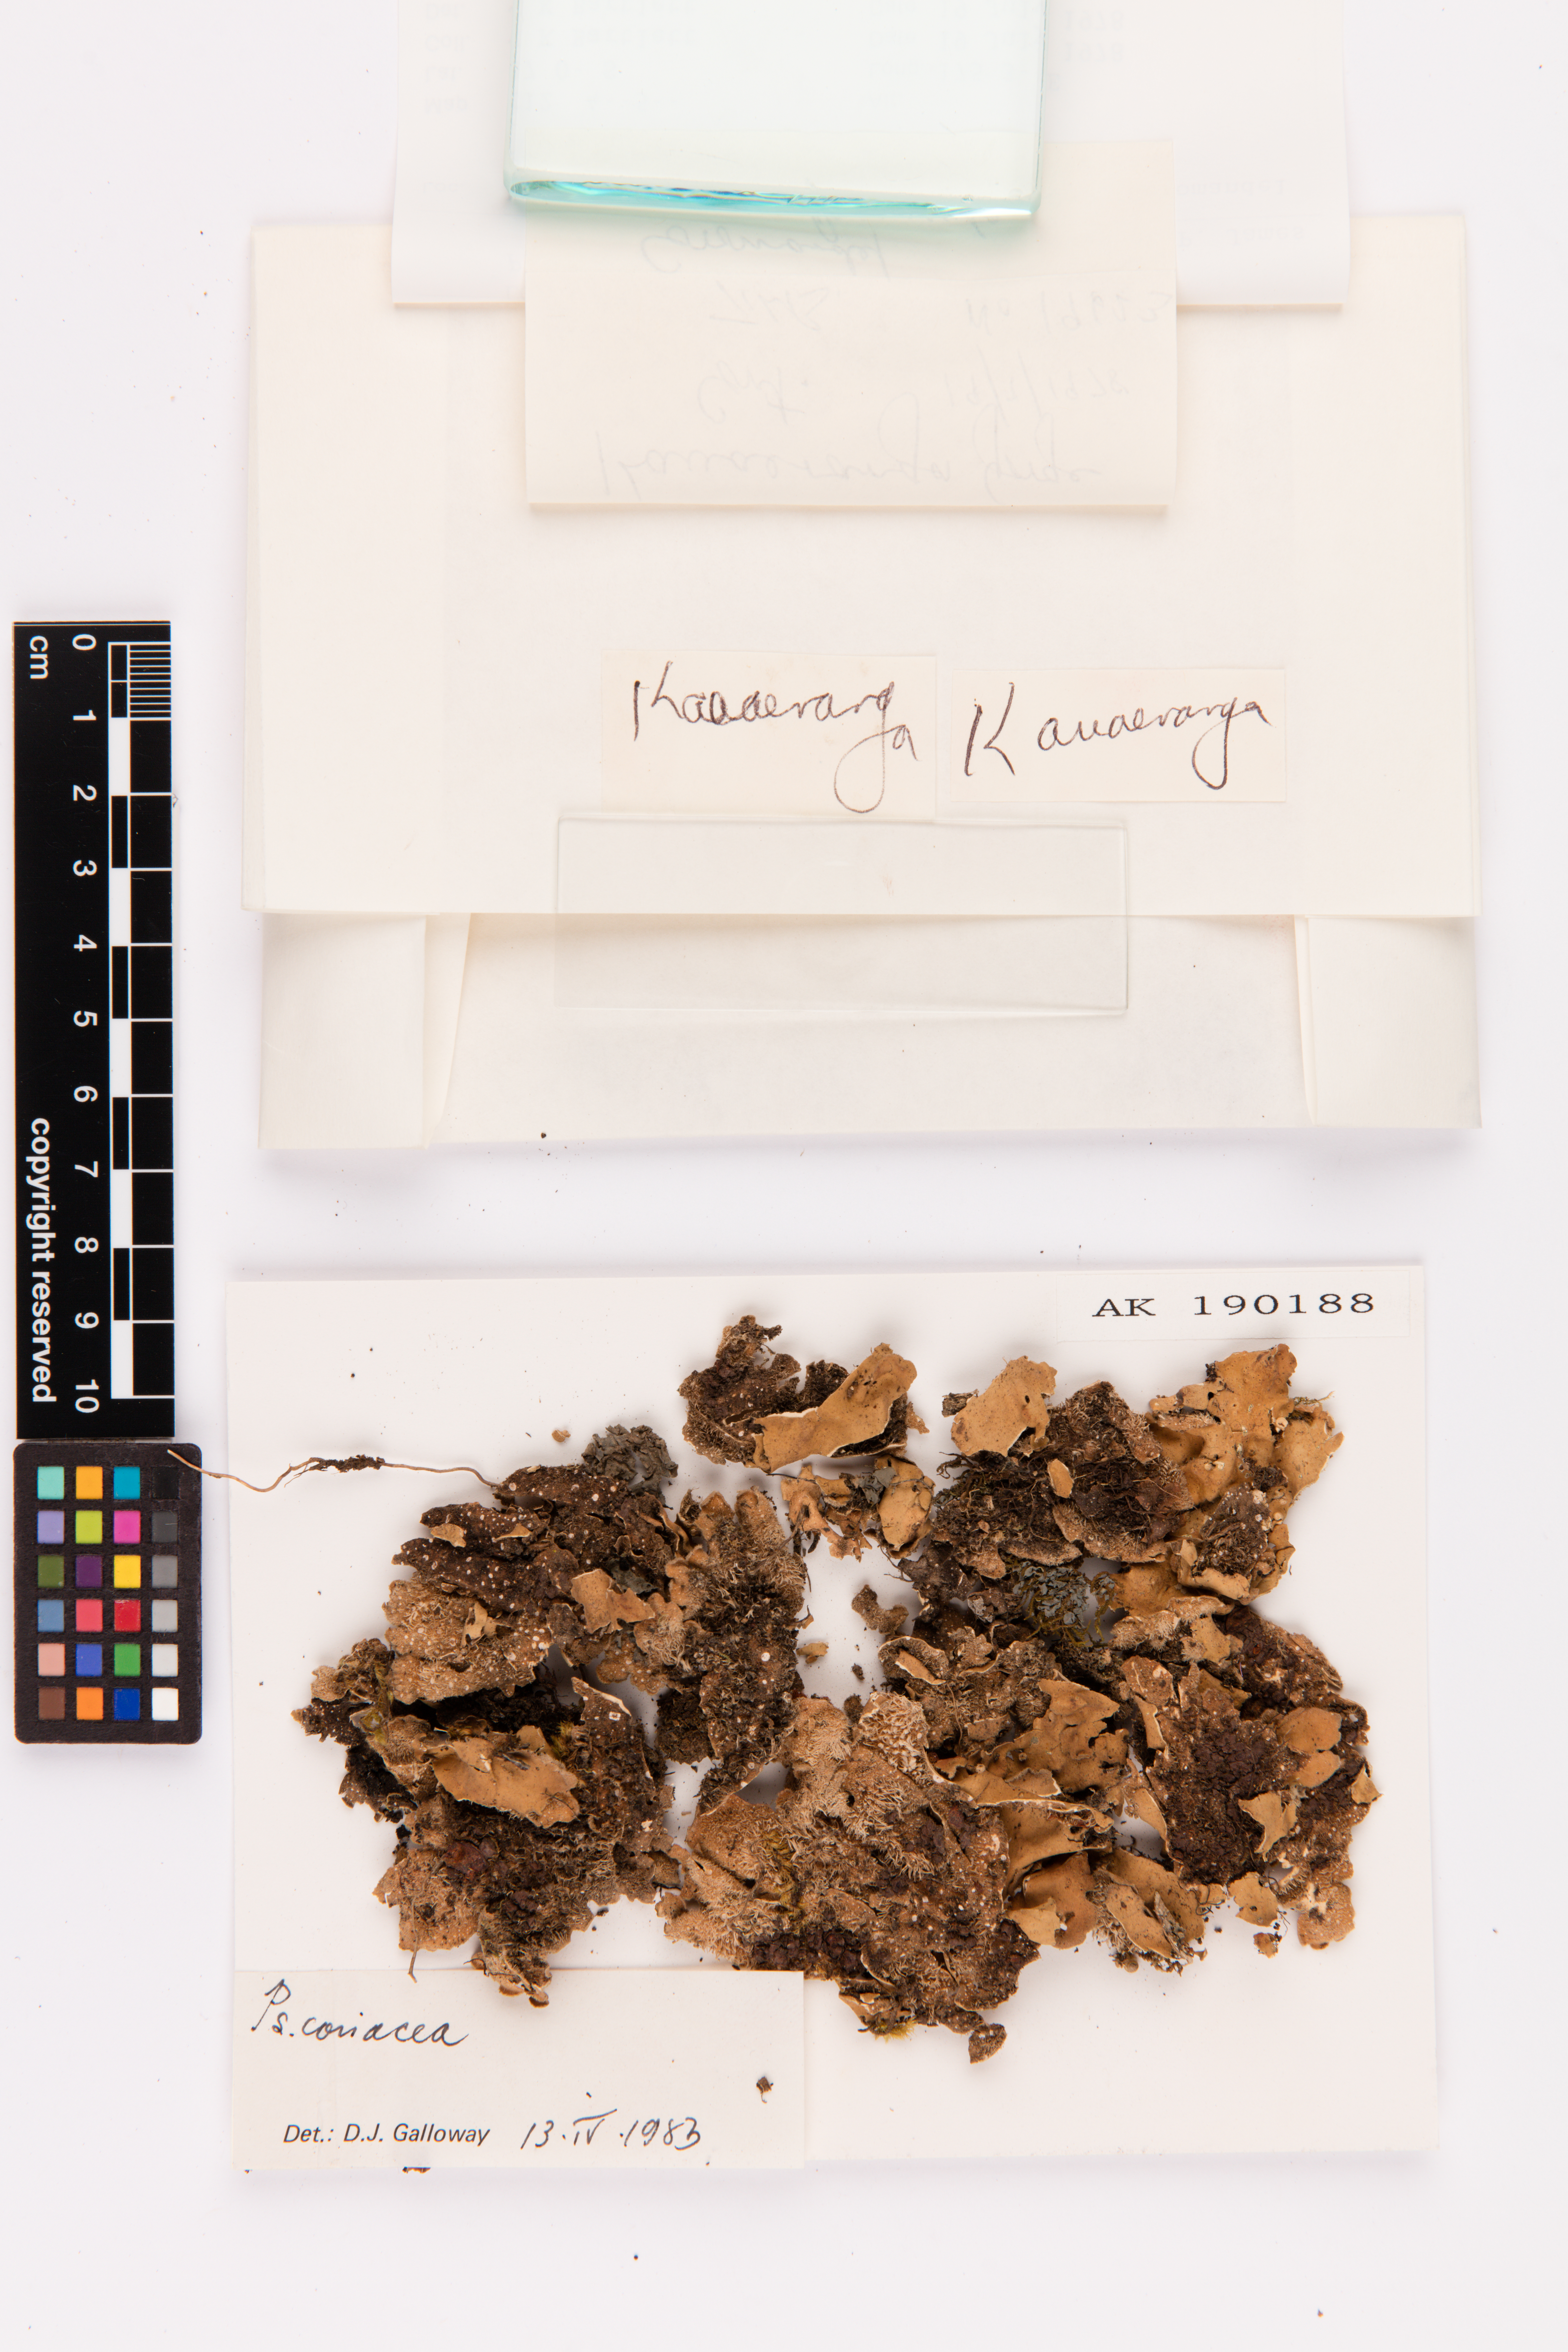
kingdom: Fungi
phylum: Ascomycota
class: Lecanoromycetes
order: Peltigerales
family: Lobariaceae
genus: Pseudocyphellaria
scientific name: Pseudocyphellaria coriacea
